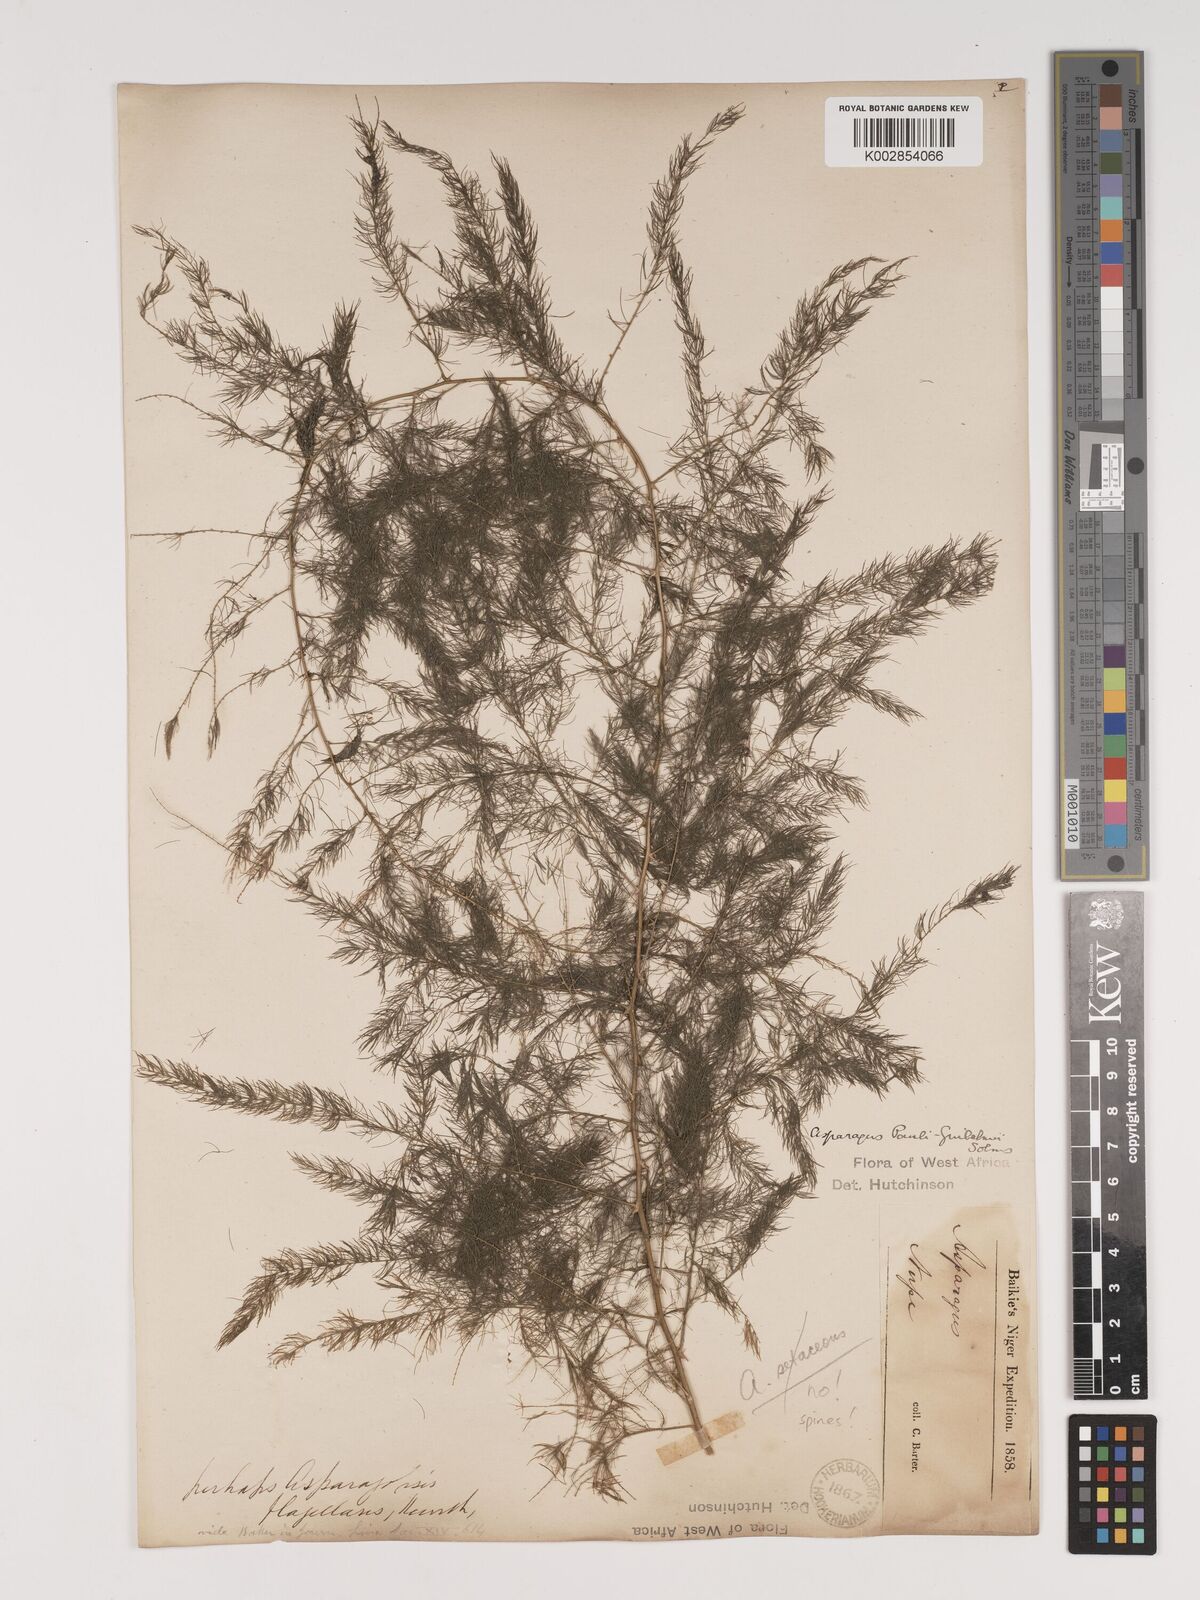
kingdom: Plantae
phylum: Tracheophyta
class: Liliopsida
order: Asparagales
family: Asparagaceae
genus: Asparagus
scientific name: Asparagus
